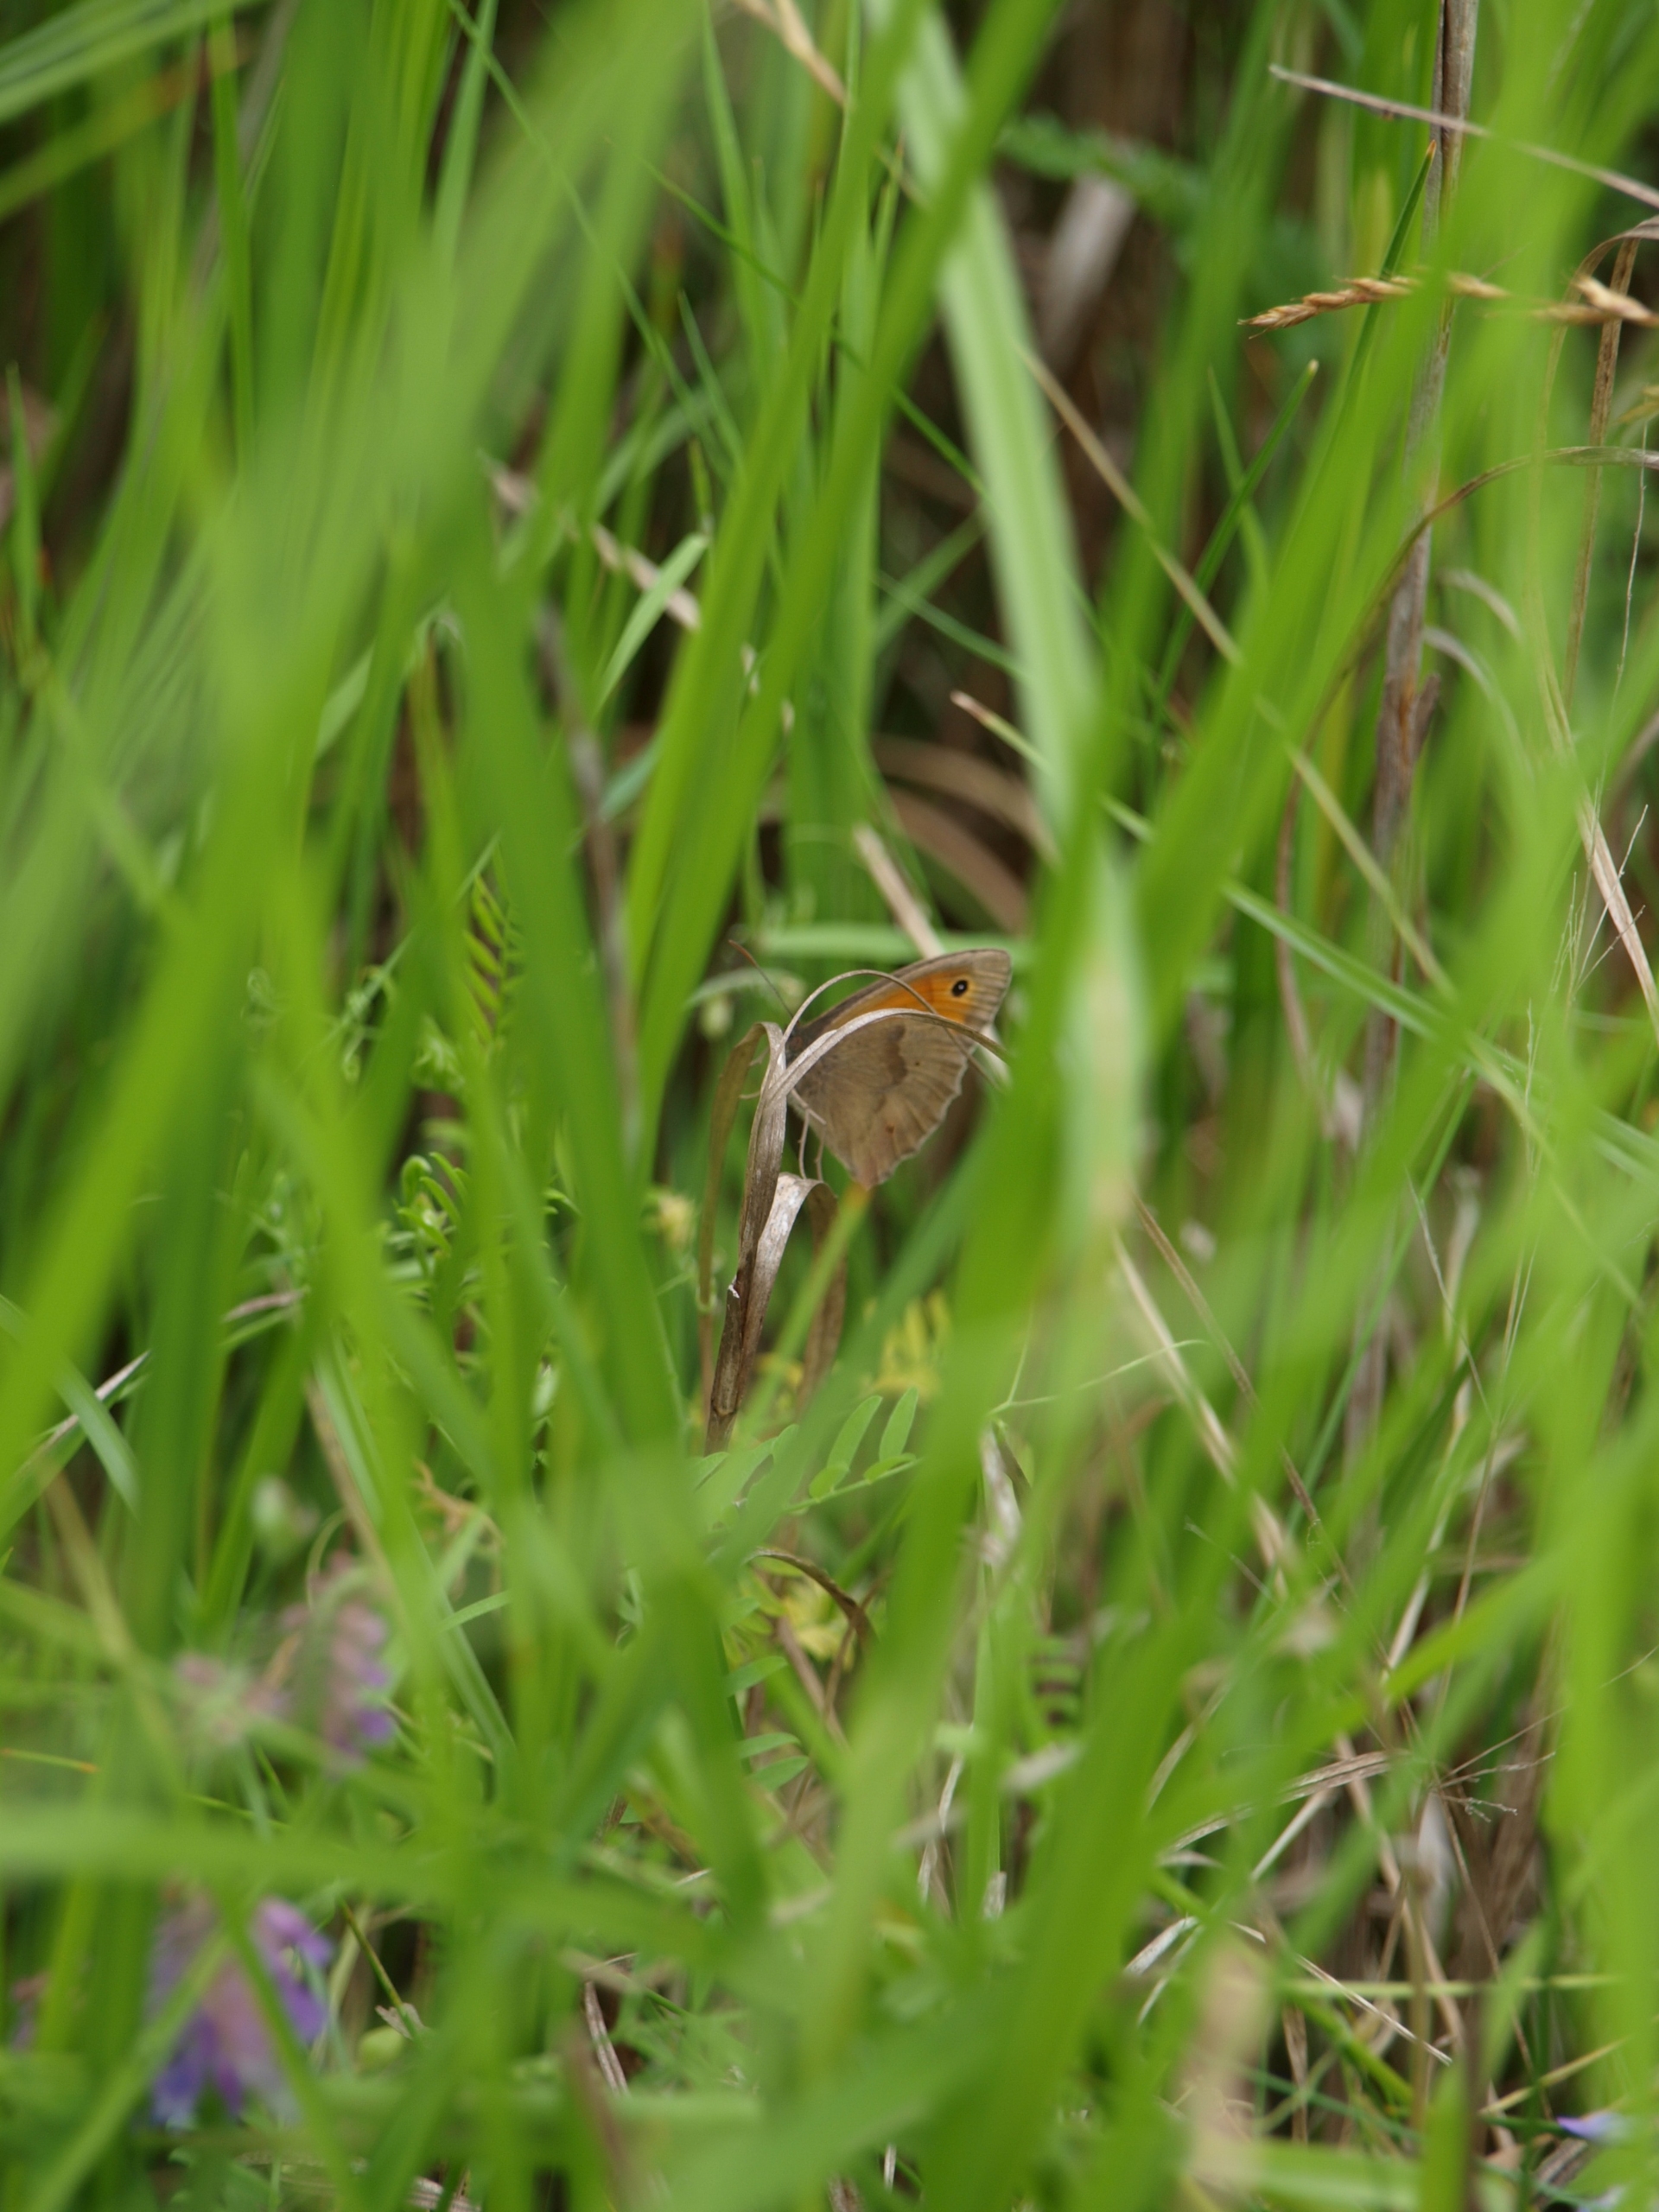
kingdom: Animalia
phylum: Arthropoda
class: Insecta
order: Lepidoptera
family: Nymphalidae
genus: Maniola
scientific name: Maniola jurtina
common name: Græsrandøje
